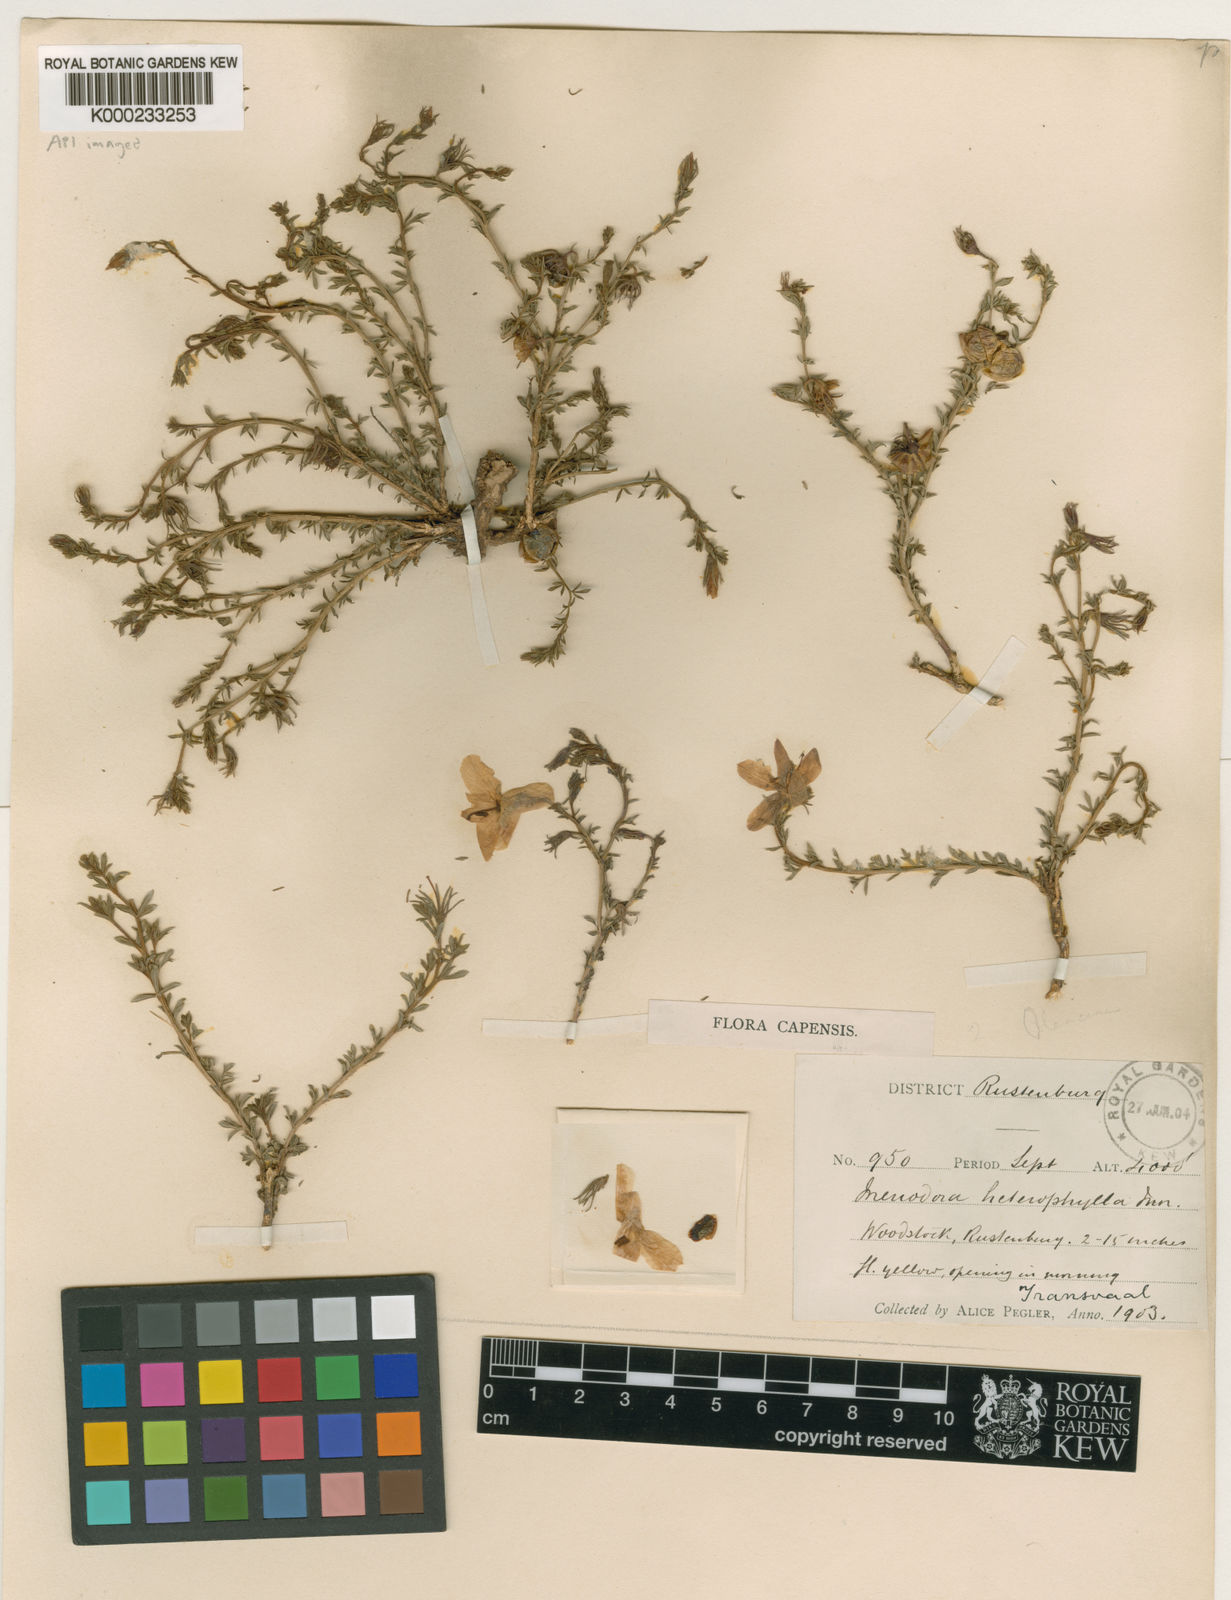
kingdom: Plantae
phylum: Tracheophyta
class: Magnoliopsida
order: Lamiales
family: Oleaceae
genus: Menodora
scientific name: Menodora heterophylla
